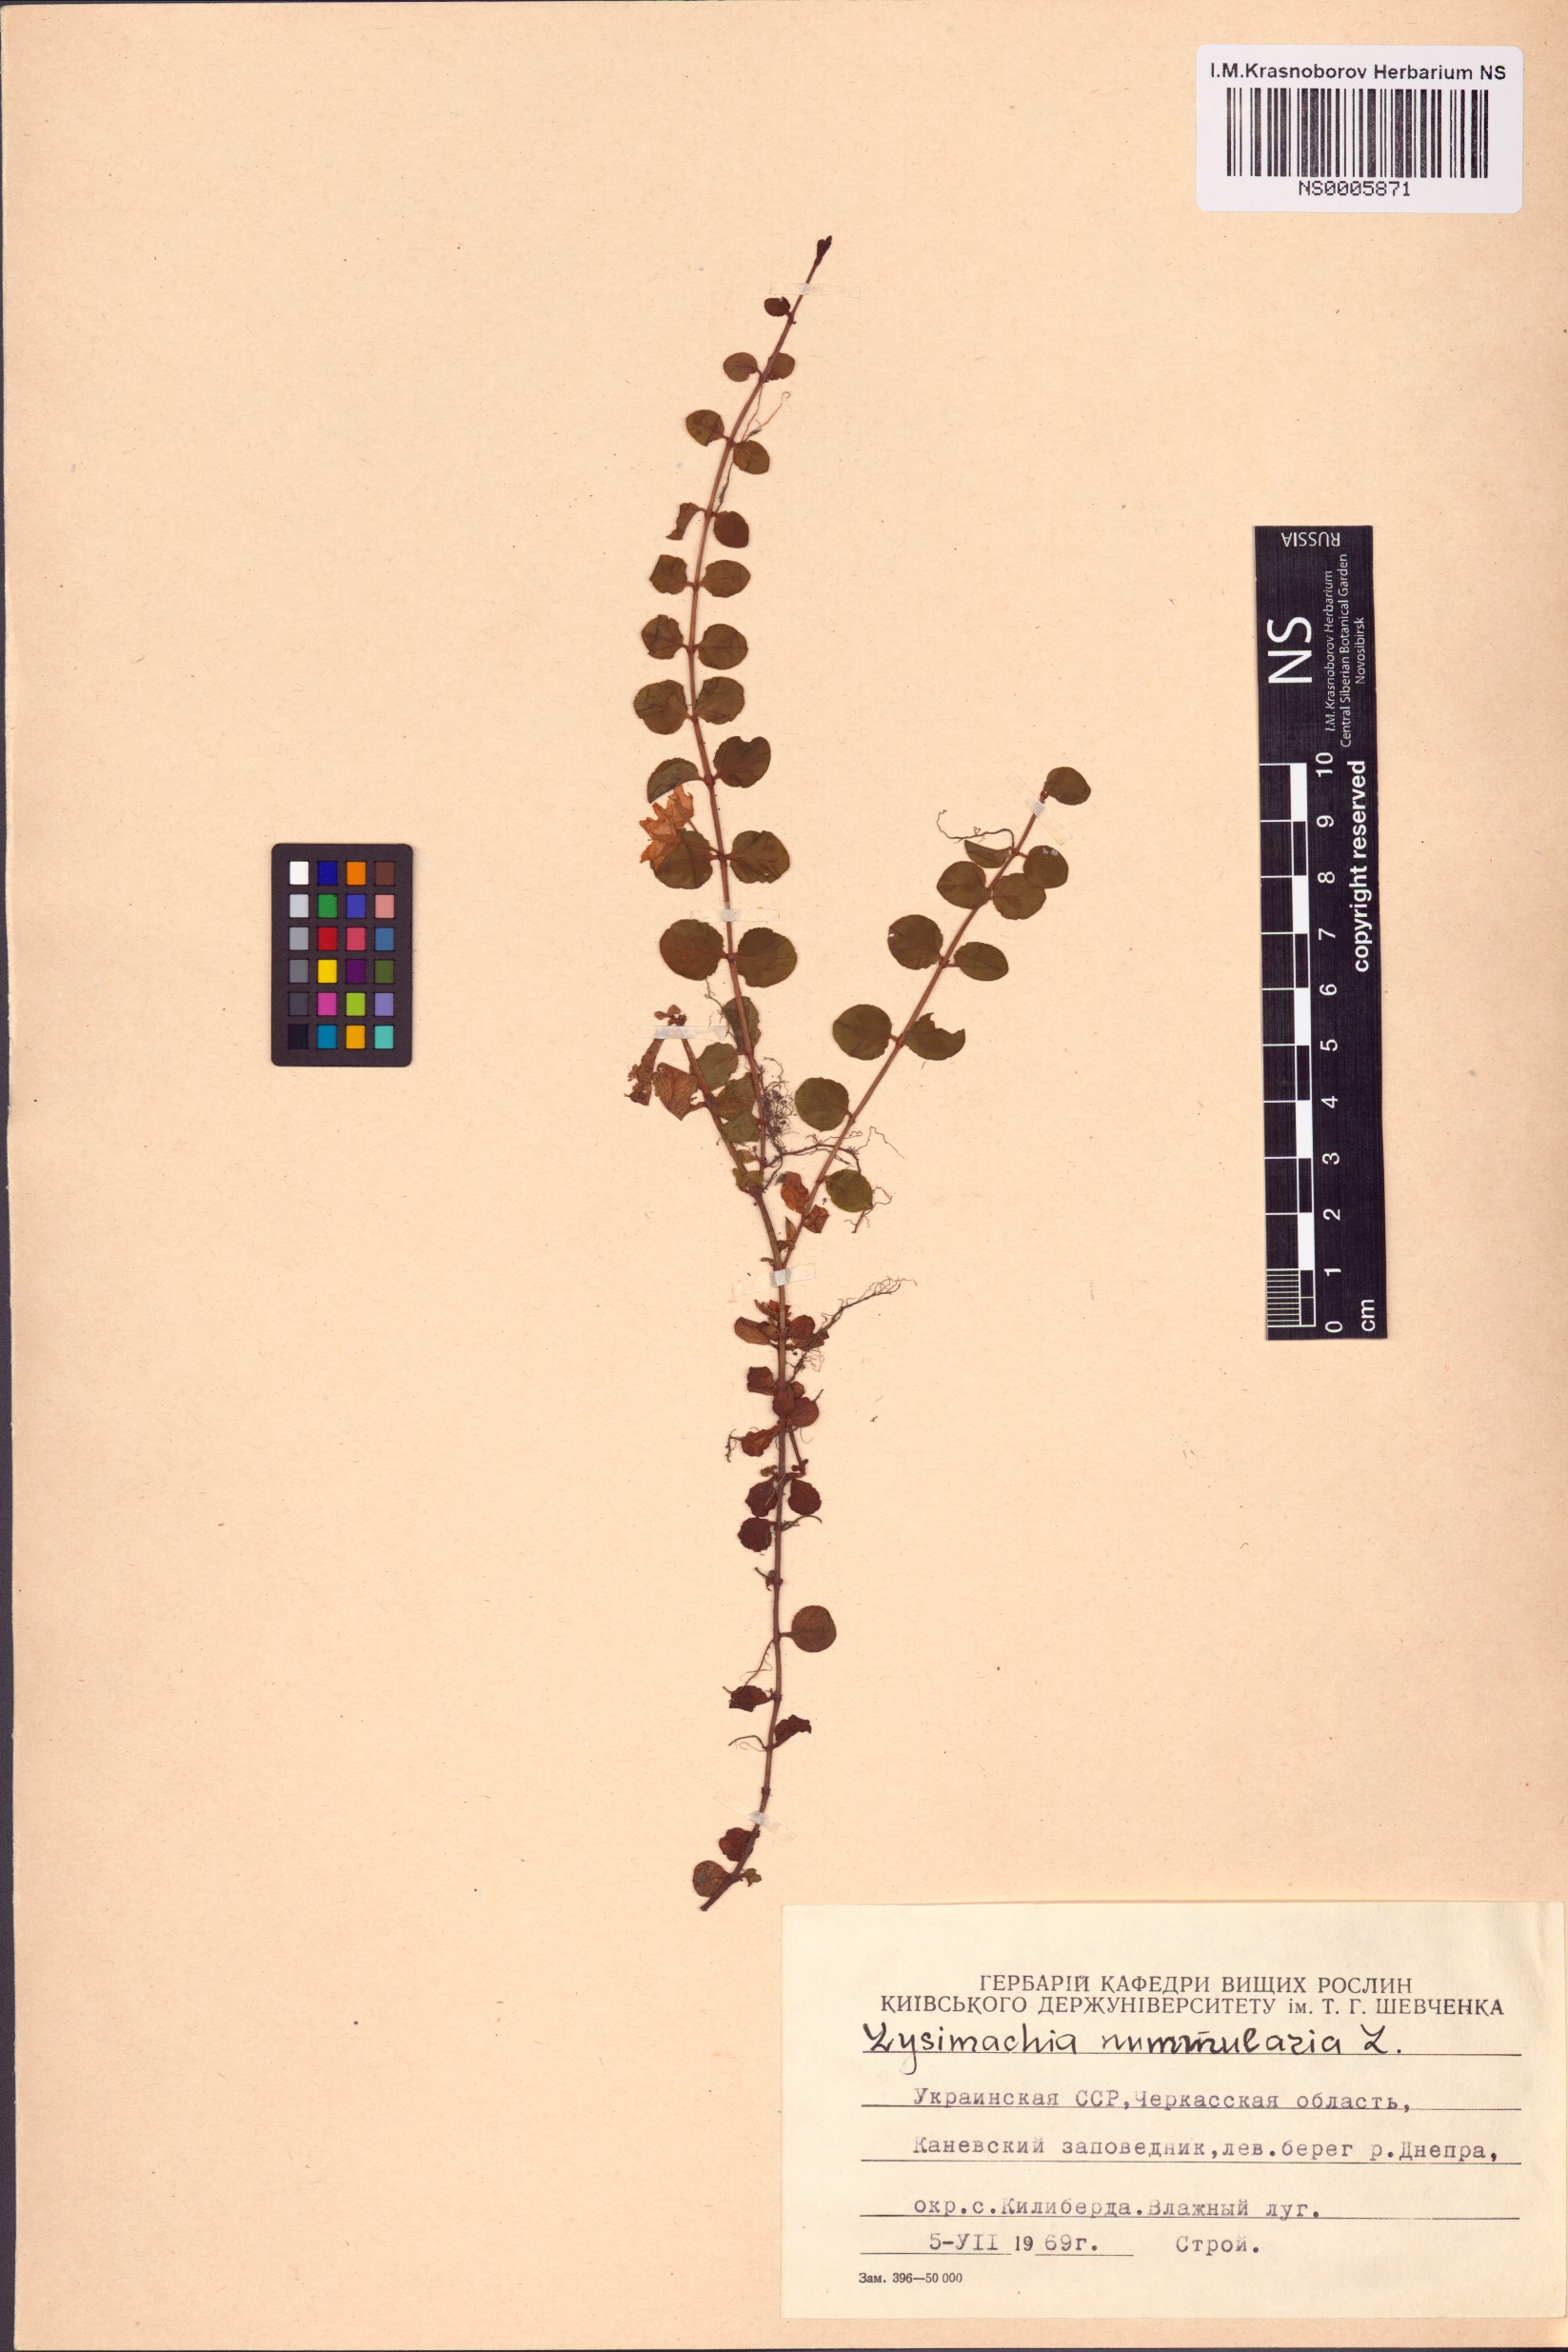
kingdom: Plantae
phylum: Tracheophyta
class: Magnoliopsida
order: Ericales
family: Primulaceae
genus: Lysimachia
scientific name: Lysimachia nummularia
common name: Moneywort
